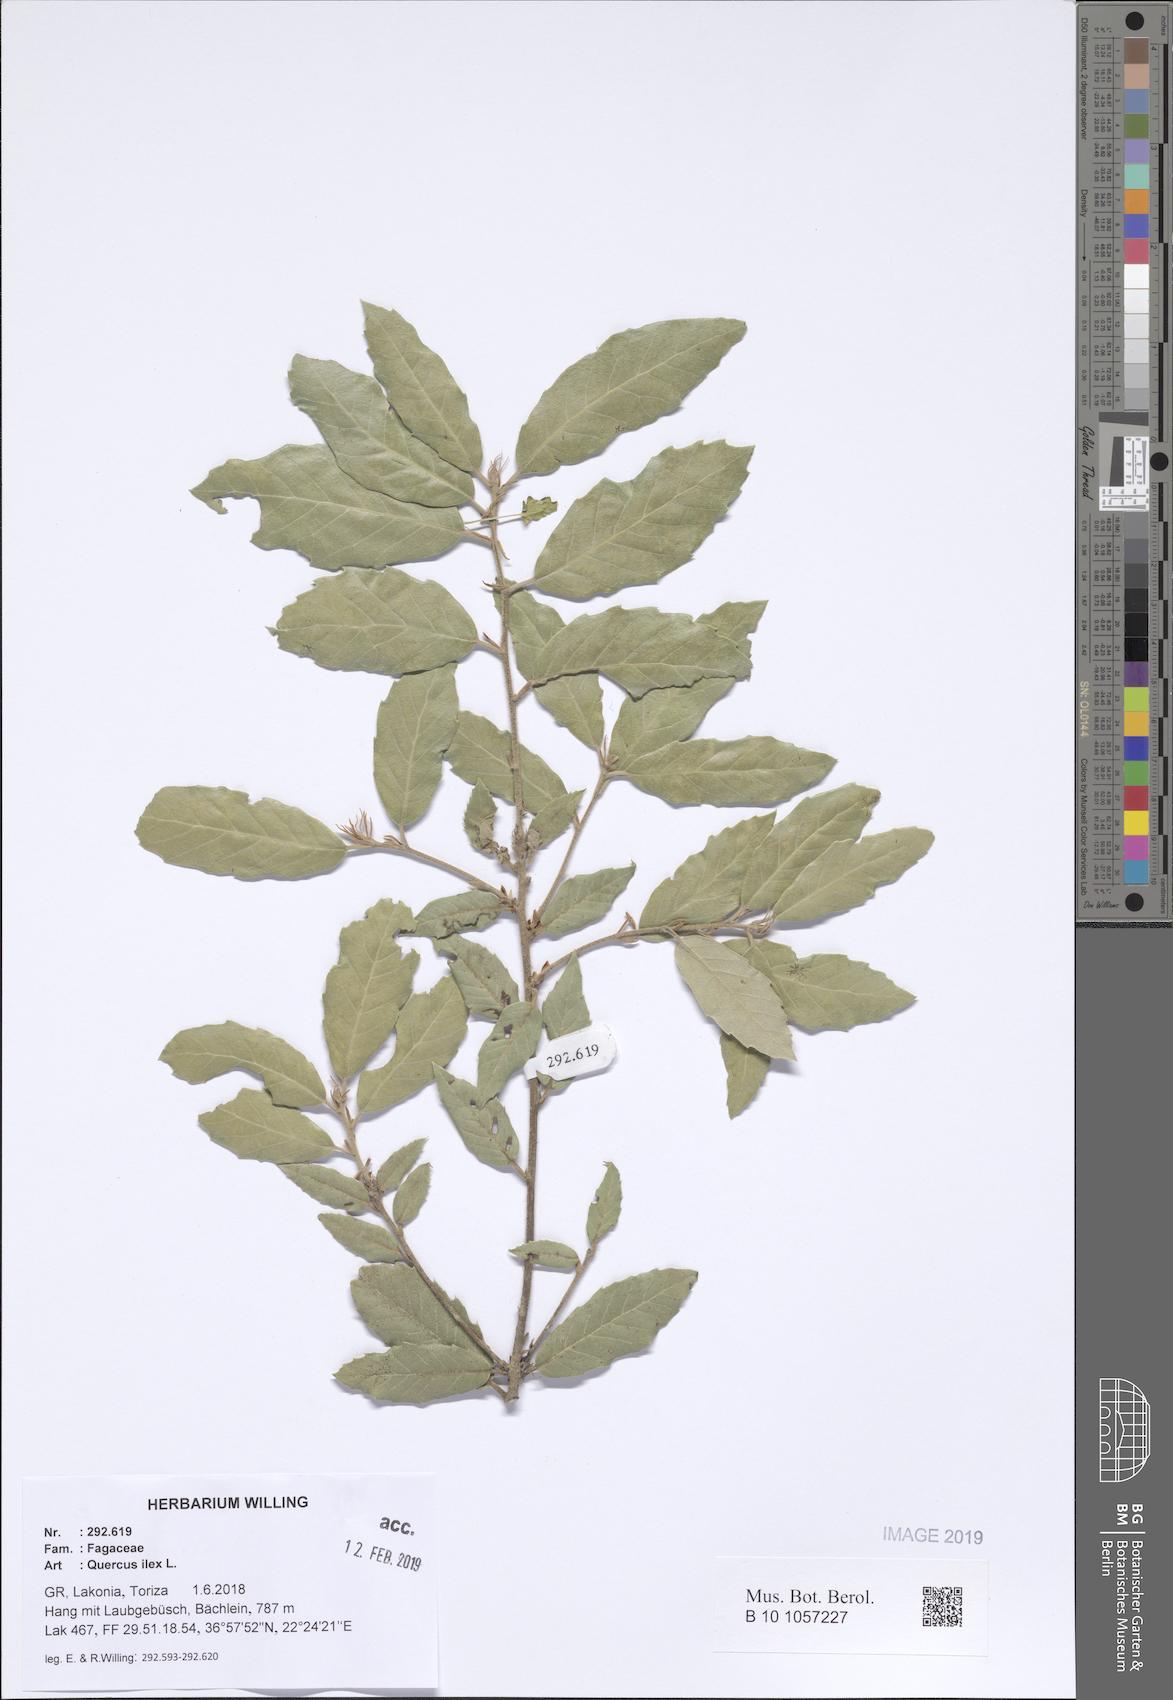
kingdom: Plantae
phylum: Tracheophyta
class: Magnoliopsida
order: Fagales
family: Fagaceae
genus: Quercus
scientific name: Quercus ilex
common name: Evergreen oak
